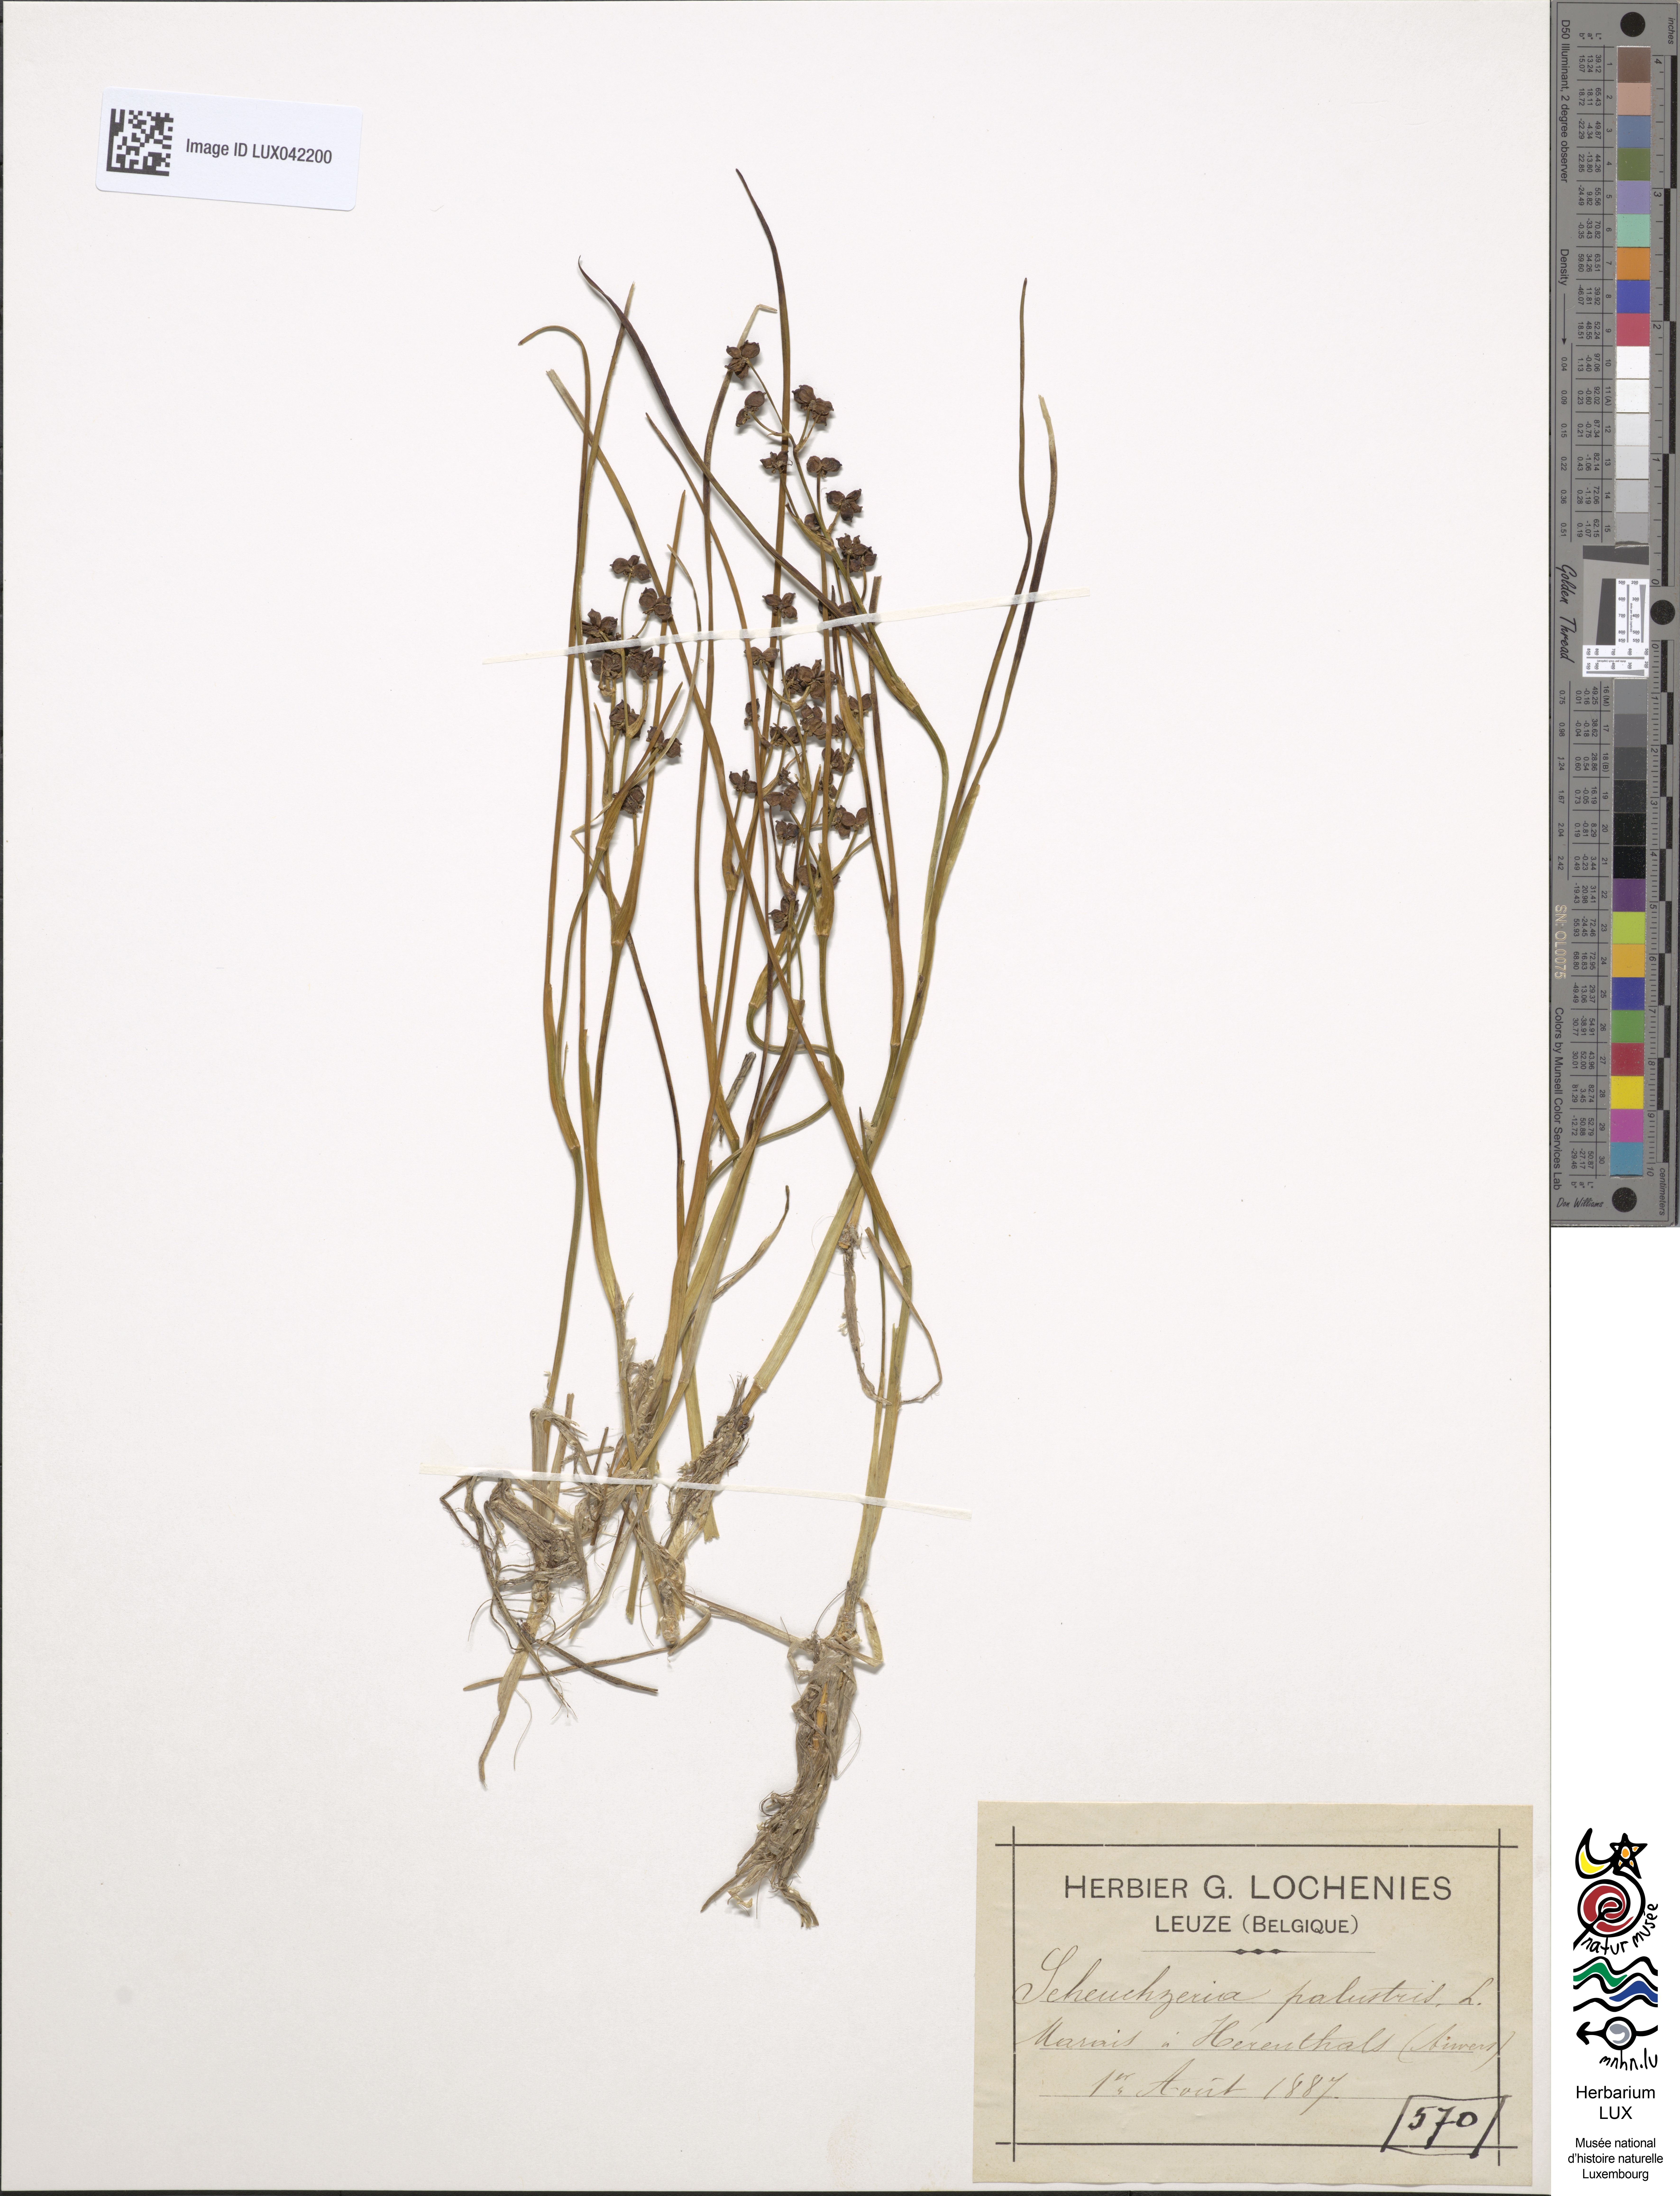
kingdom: Plantae
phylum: Tracheophyta
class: Liliopsida
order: Alismatales
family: Scheuchzeriaceae
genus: Scheuchzeria
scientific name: Scheuchzeria palustris
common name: Rannoch-rush
